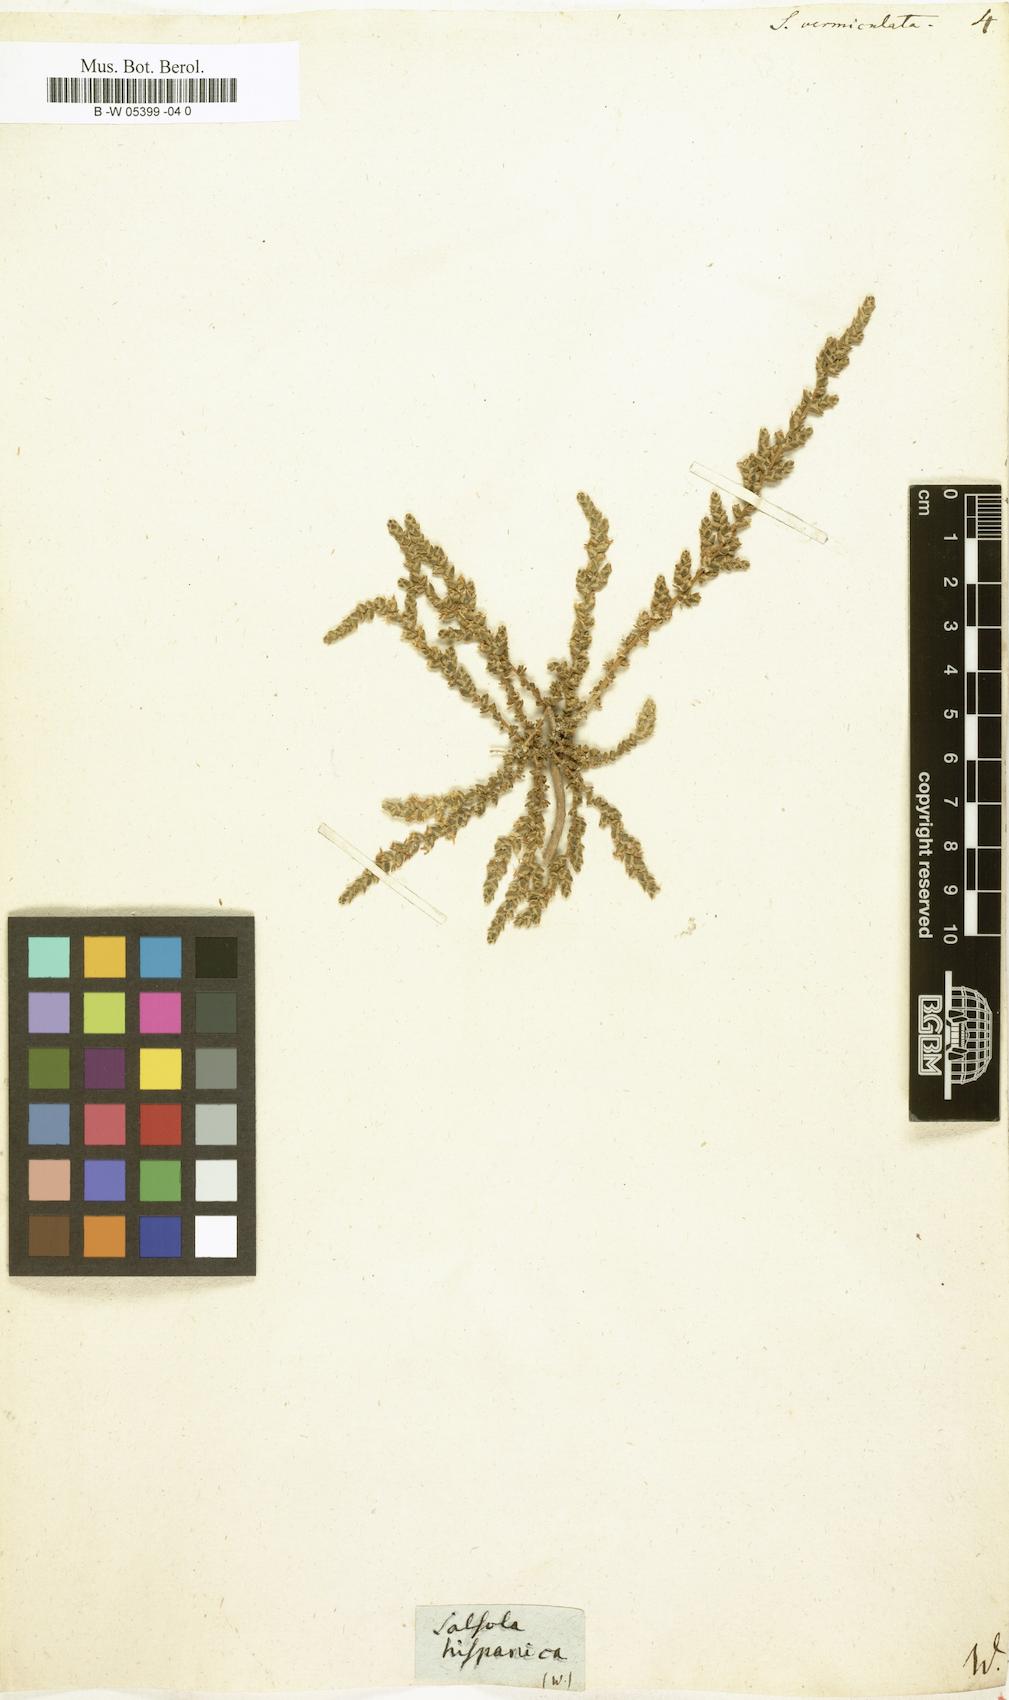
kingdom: Plantae
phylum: Tracheophyta
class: Magnoliopsida
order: Caryophyllales
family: Amaranthaceae
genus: Nitrosalsola
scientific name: Nitrosalsola vermiculata
